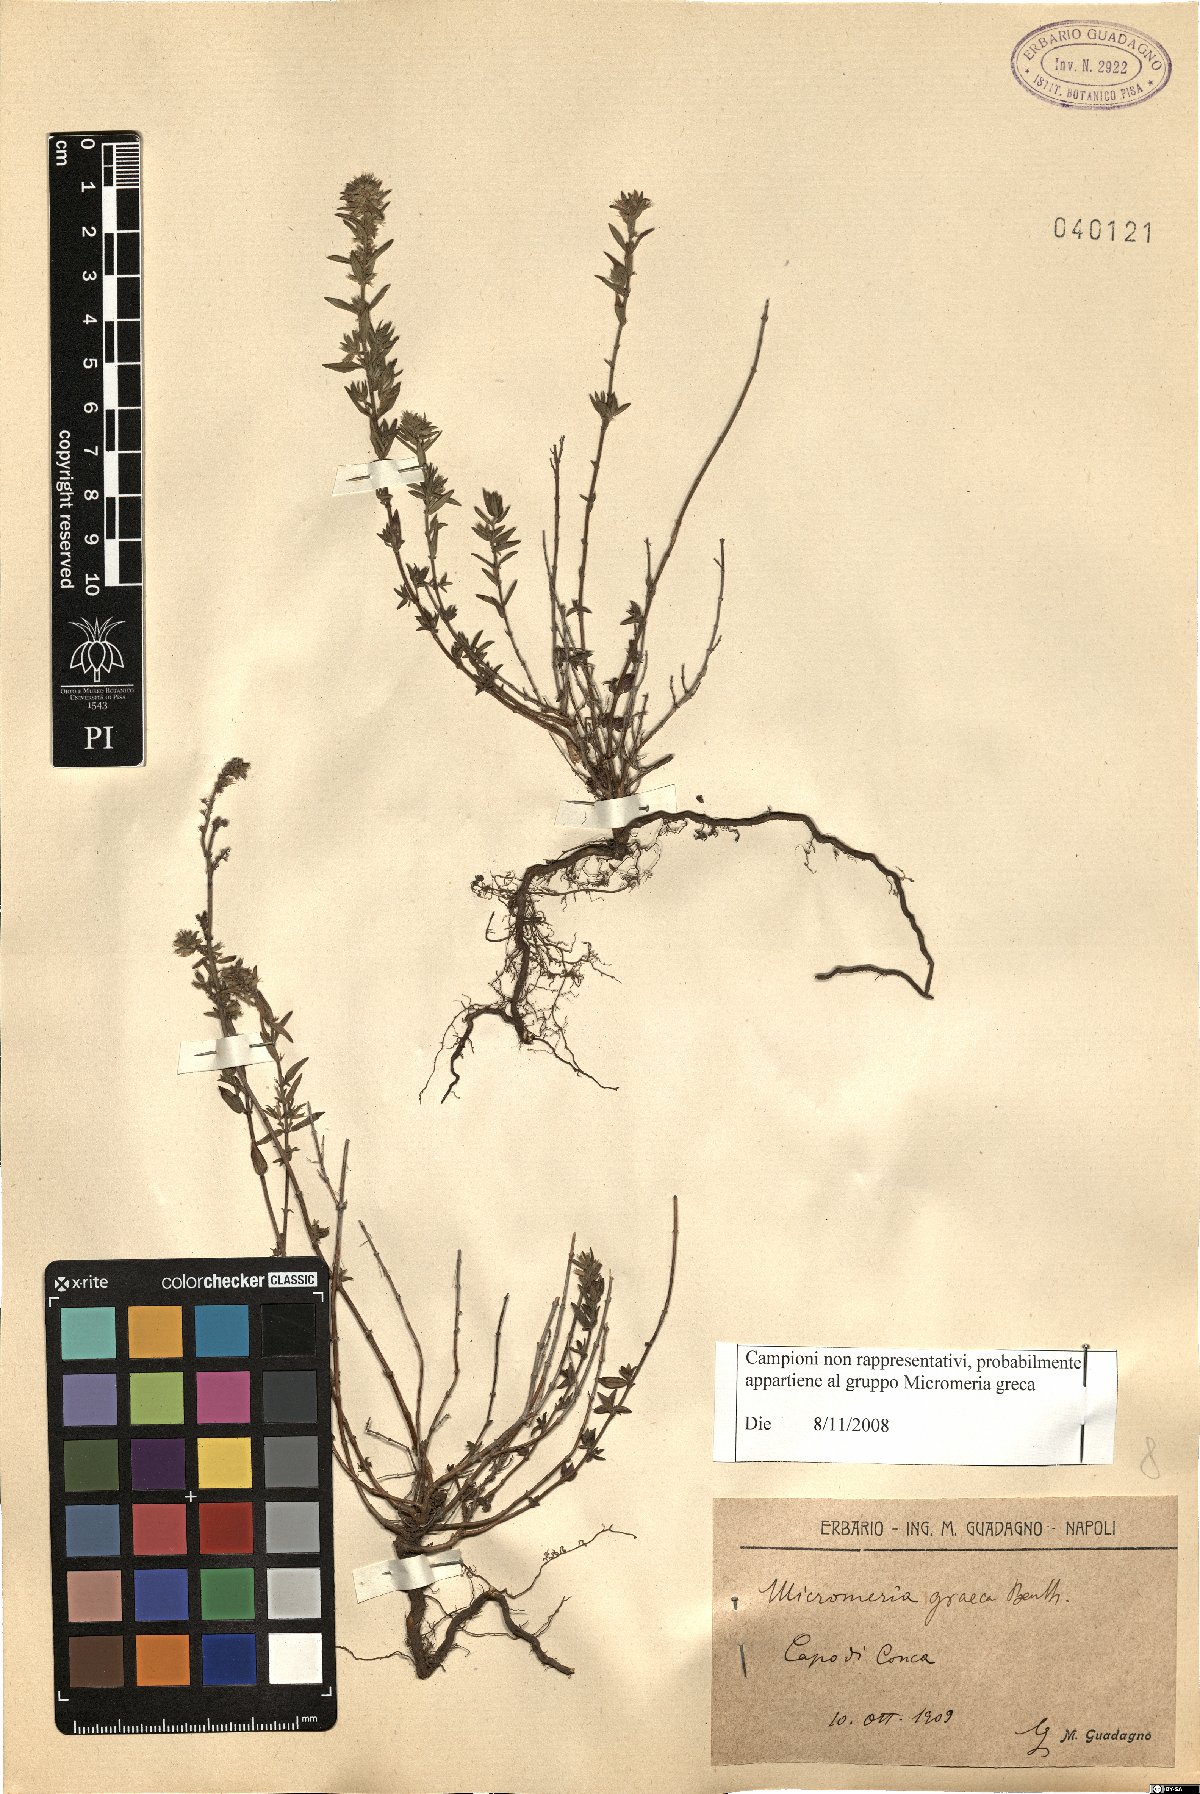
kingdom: Plantae
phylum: Tracheophyta
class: Magnoliopsida
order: Lamiales
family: Lamiaceae
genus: Micromeria
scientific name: Micromeria graeca
